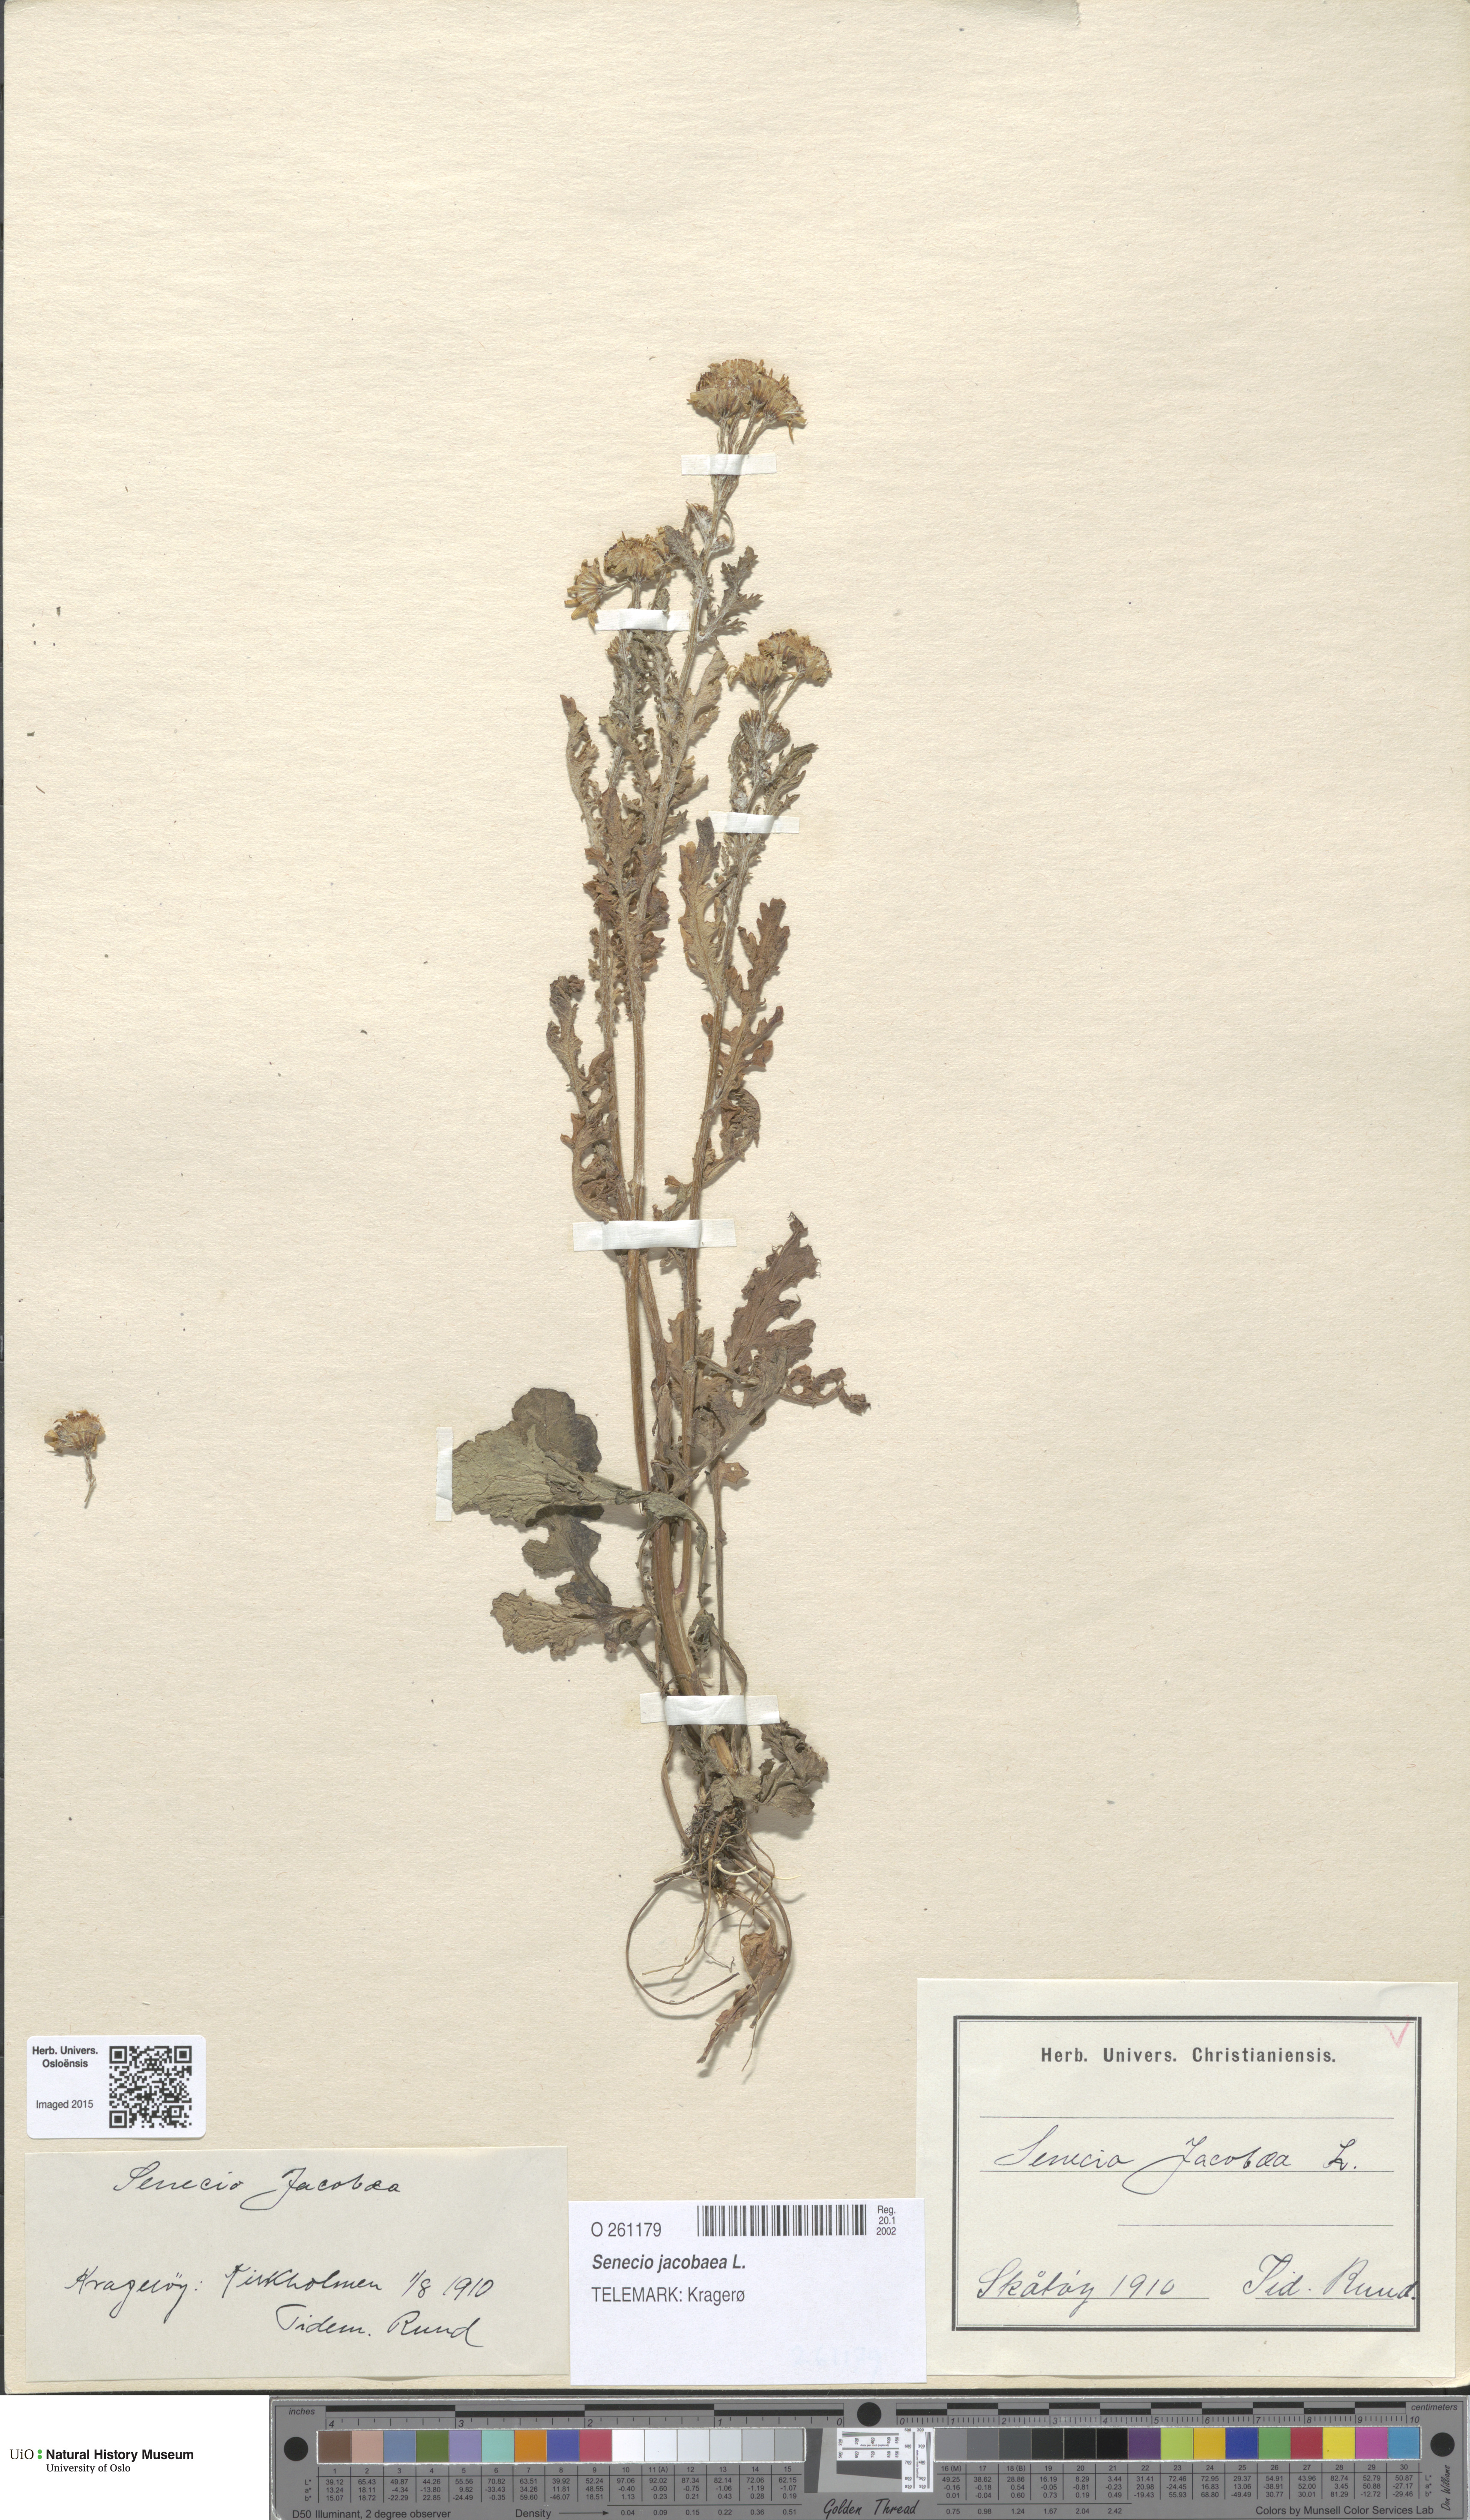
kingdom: Plantae
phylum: Tracheophyta
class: Magnoliopsida
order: Asterales
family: Asteraceae
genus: Jacobaea
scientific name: Jacobaea vulgaris
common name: Stinking willie
